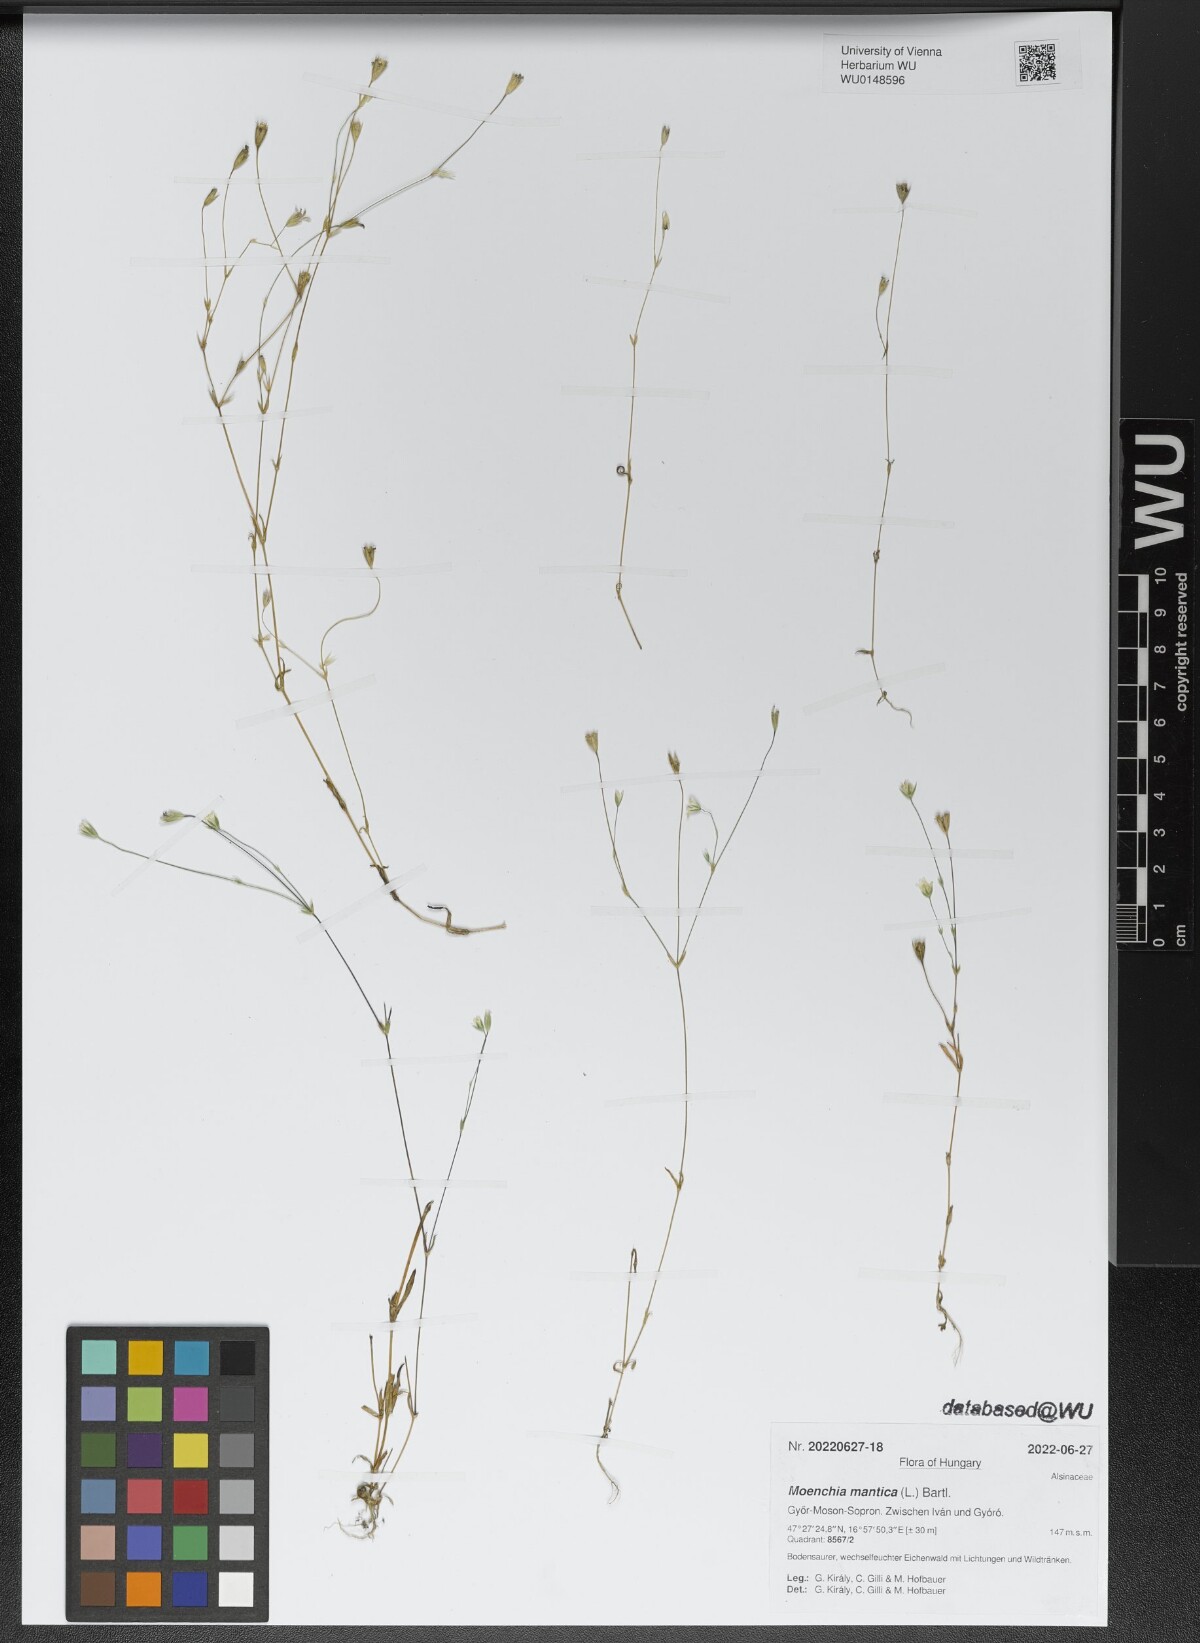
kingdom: Plantae
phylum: Tracheophyta
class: Magnoliopsida
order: Caryophyllales
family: Caryophyllaceae
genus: Moenchia
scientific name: Moenchia mantica
